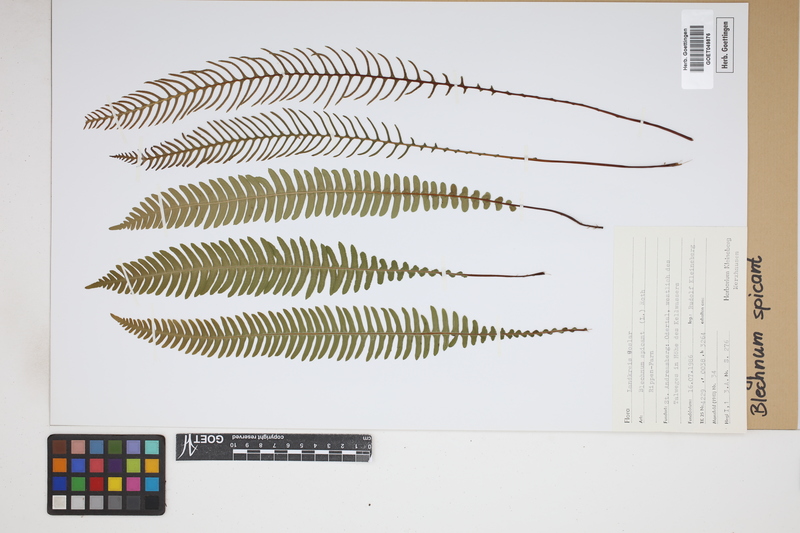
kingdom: Plantae
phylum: Tracheophyta
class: Polypodiopsida
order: Polypodiales
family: Blechnaceae
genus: Struthiopteris
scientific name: Struthiopteris spicant
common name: Deer fern
